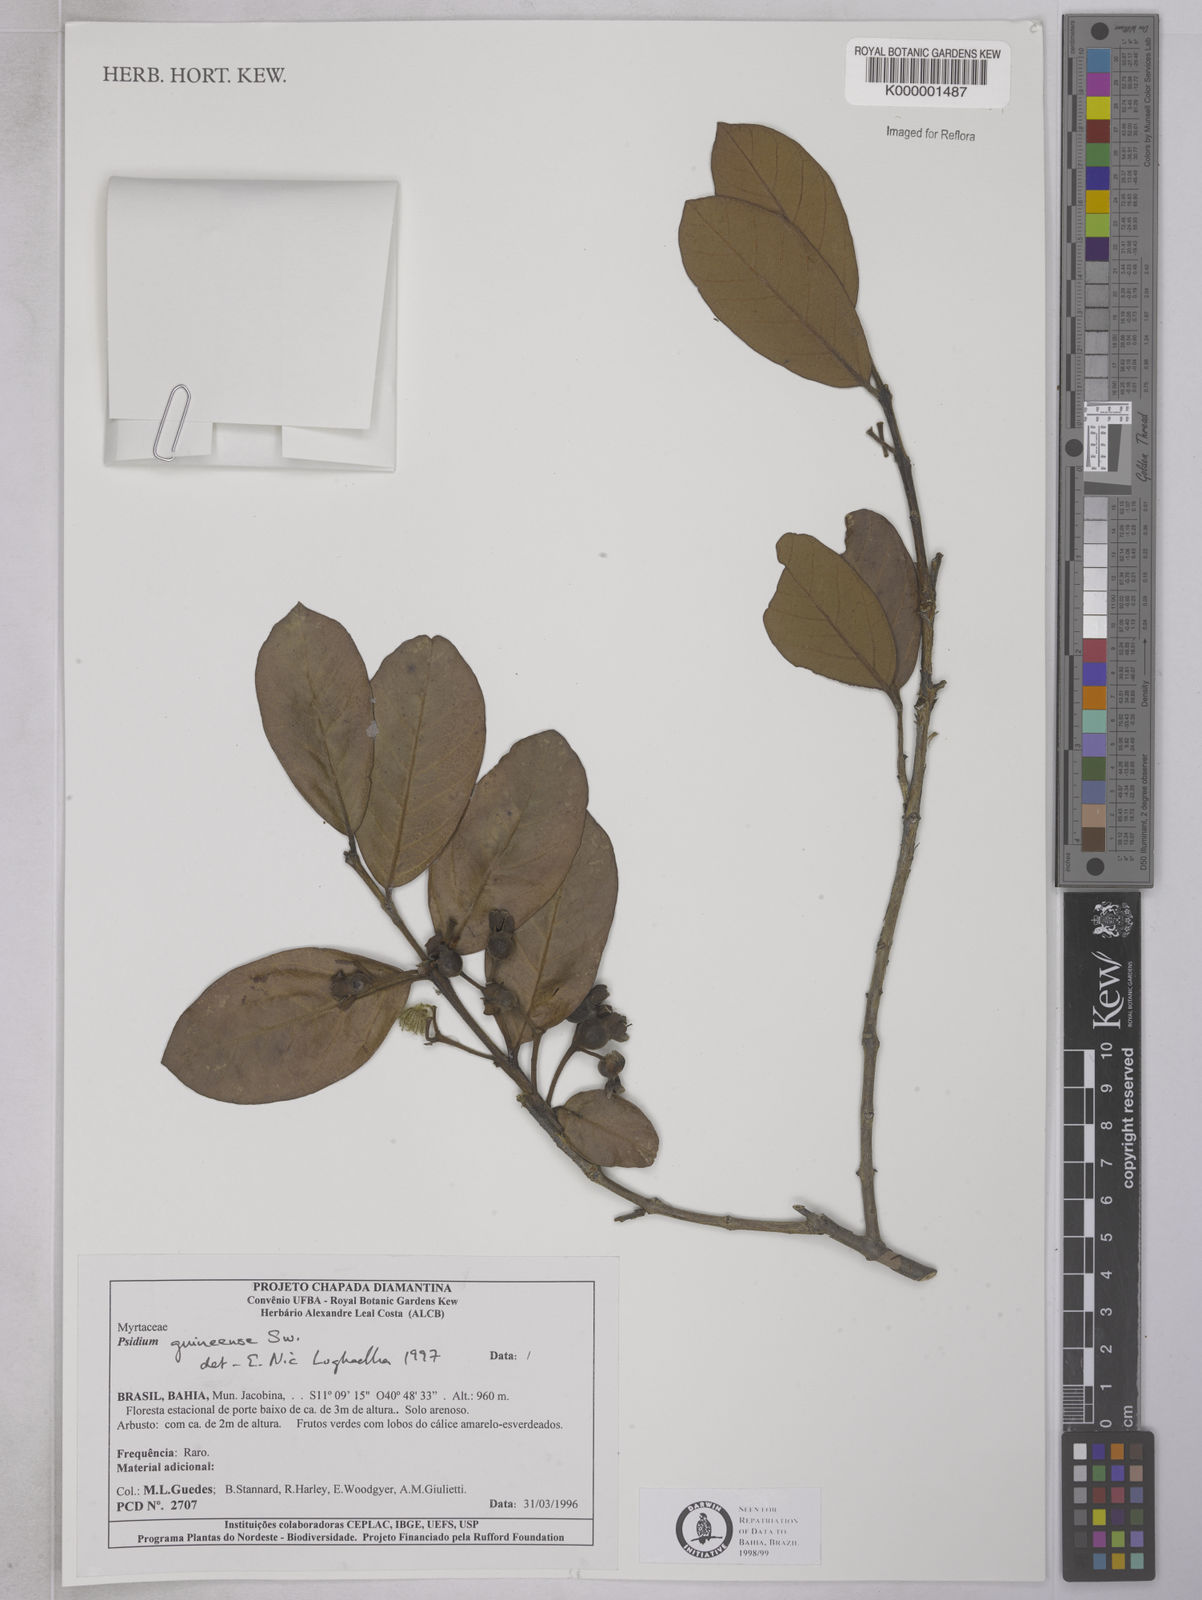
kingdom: Plantae
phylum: Tracheophyta
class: Magnoliopsida
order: Myrtales
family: Myrtaceae
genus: Psidium
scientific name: Psidium guineense
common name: Brazilian guava
